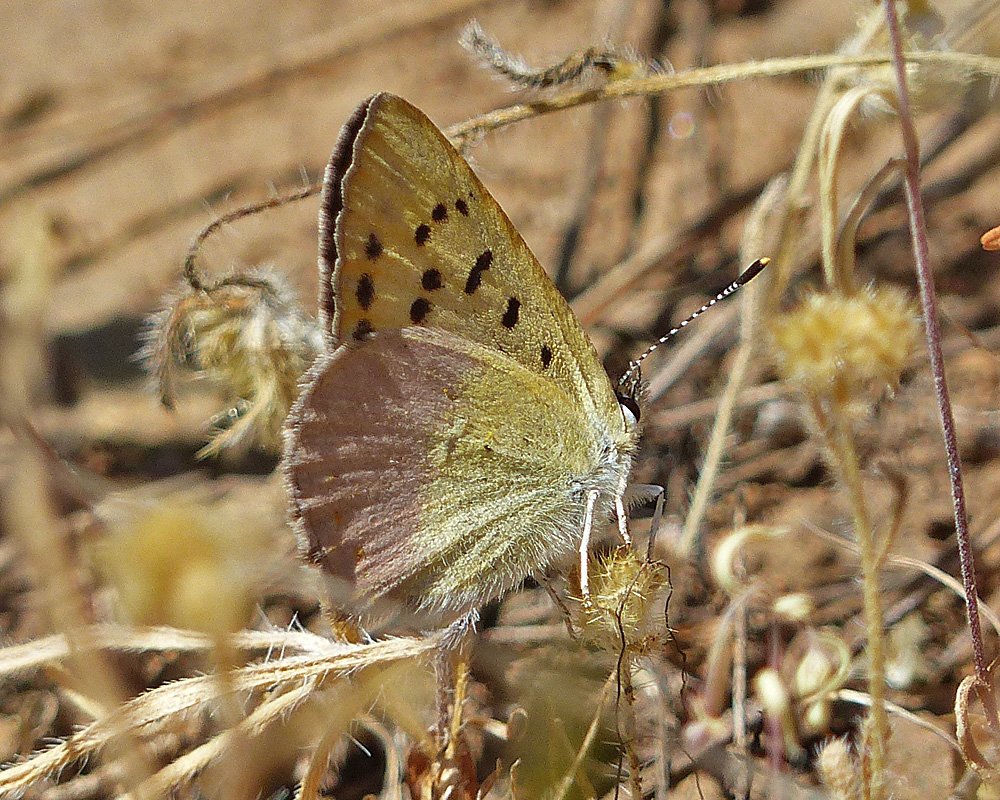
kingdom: Animalia
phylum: Arthropoda
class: Insecta
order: Lepidoptera
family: Lycaenidae
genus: Lycaena
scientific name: Lycaena nivalis
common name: Lilac-bordered Copper
